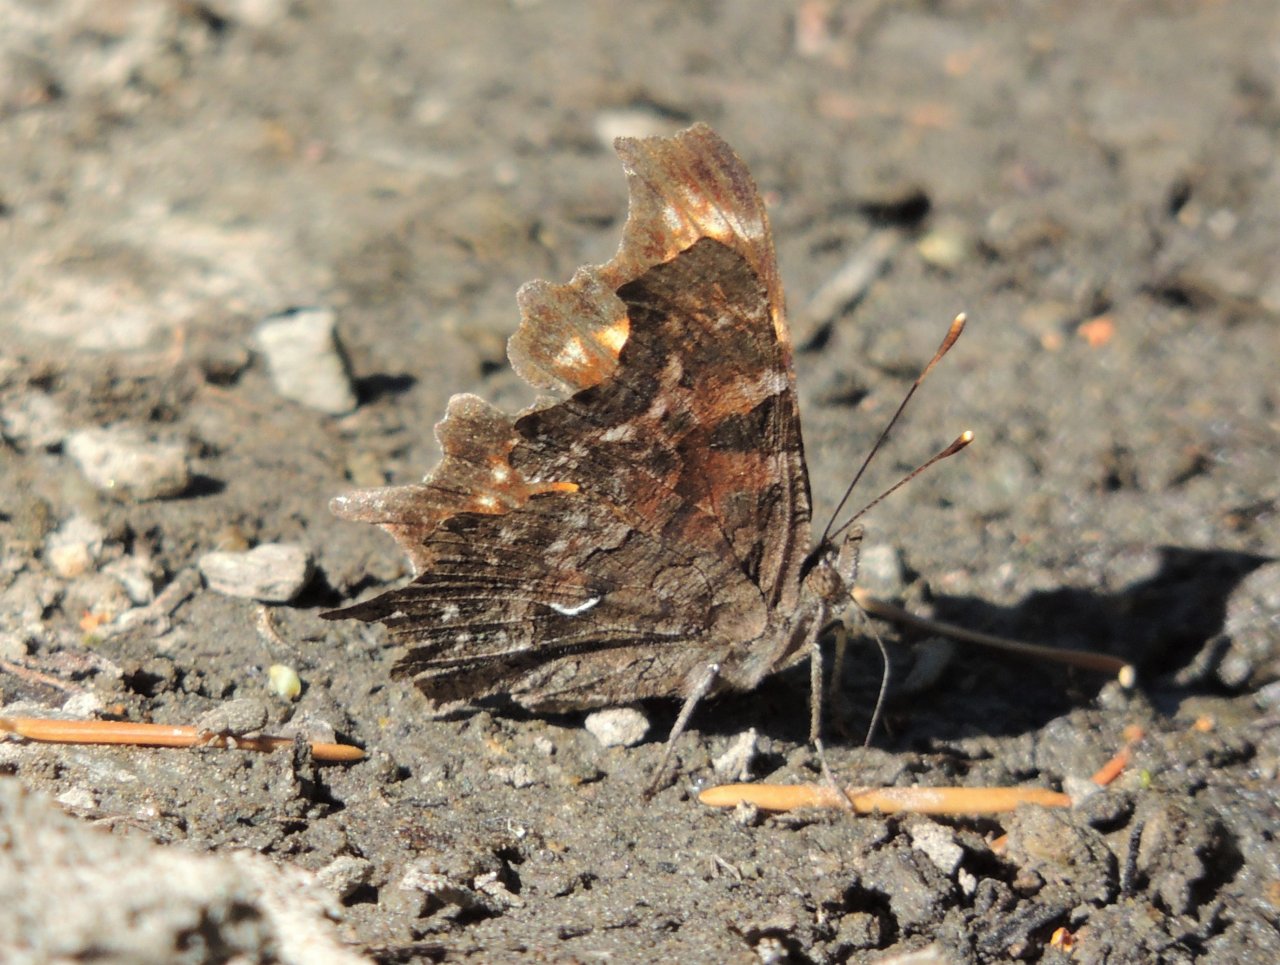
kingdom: Animalia
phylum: Arthropoda
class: Insecta
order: Lepidoptera
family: Nymphalidae
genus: Polygonia
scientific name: Polygonia faunus
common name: Green Comma
